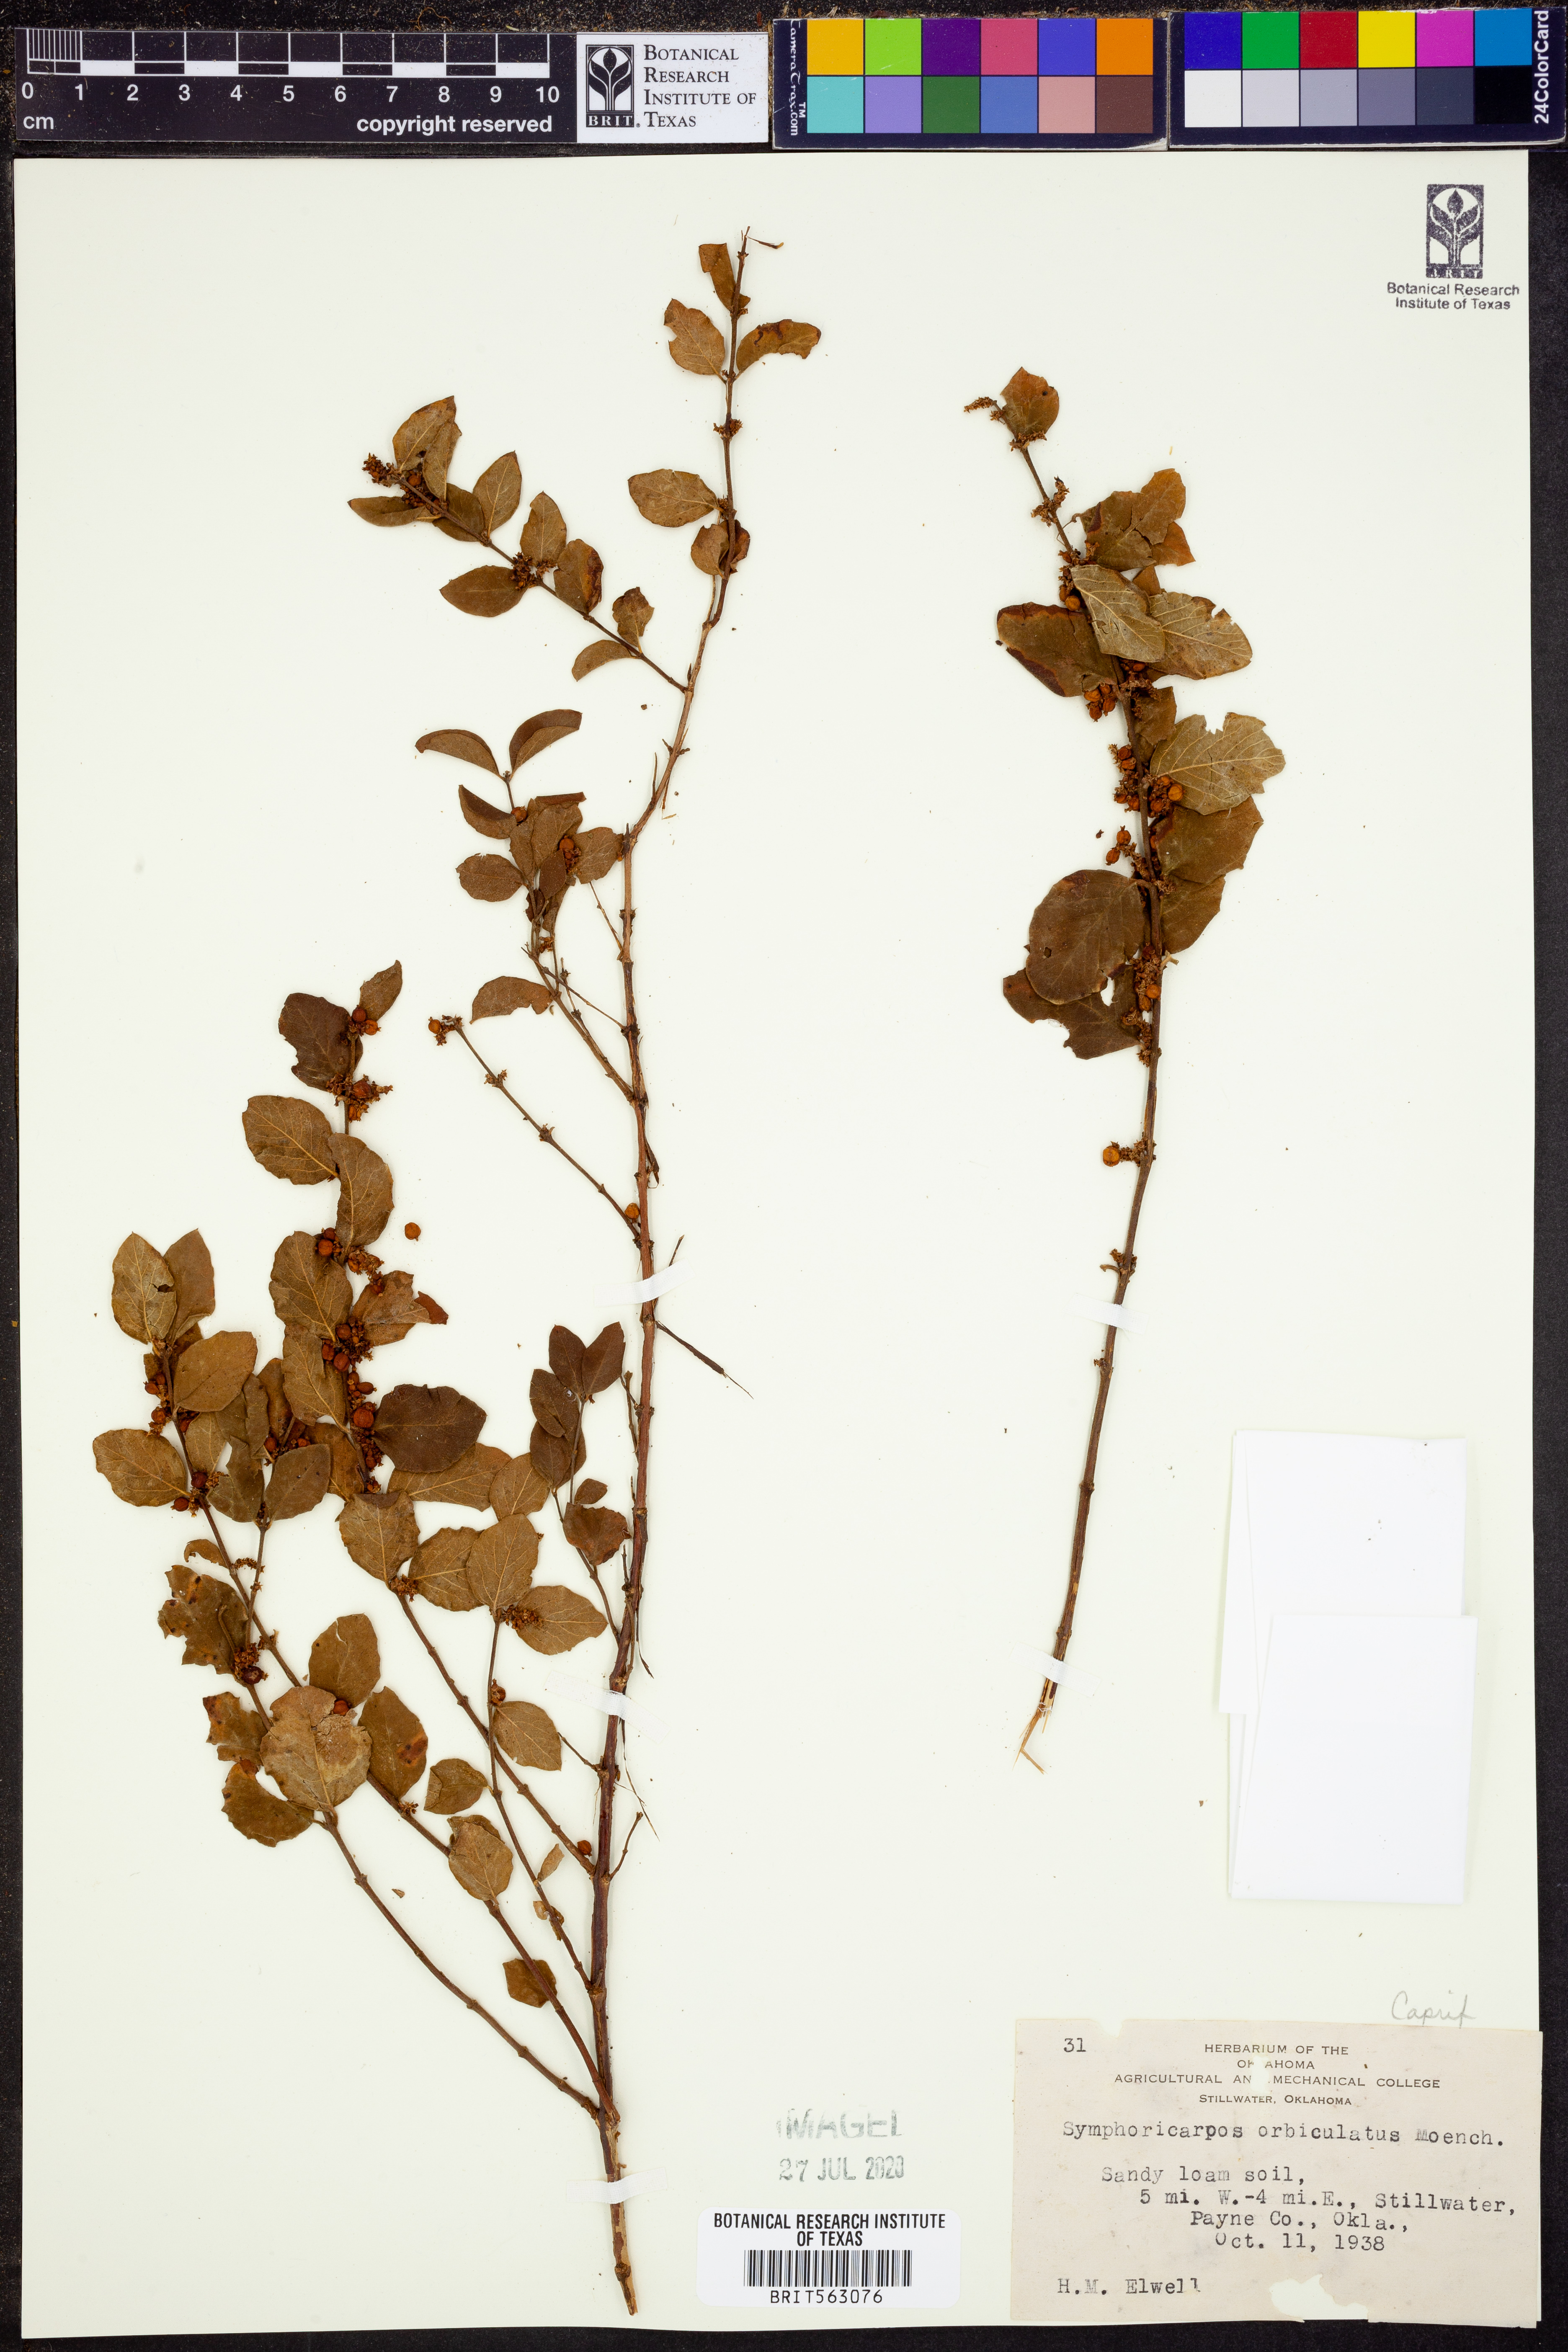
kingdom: Plantae
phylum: Tracheophyta
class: Magnoliopsida
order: Dipsacales
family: Caprifoliaceae
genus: Symphoricarpos
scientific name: Symphoricarpos orbiculatus
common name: Coralberry
